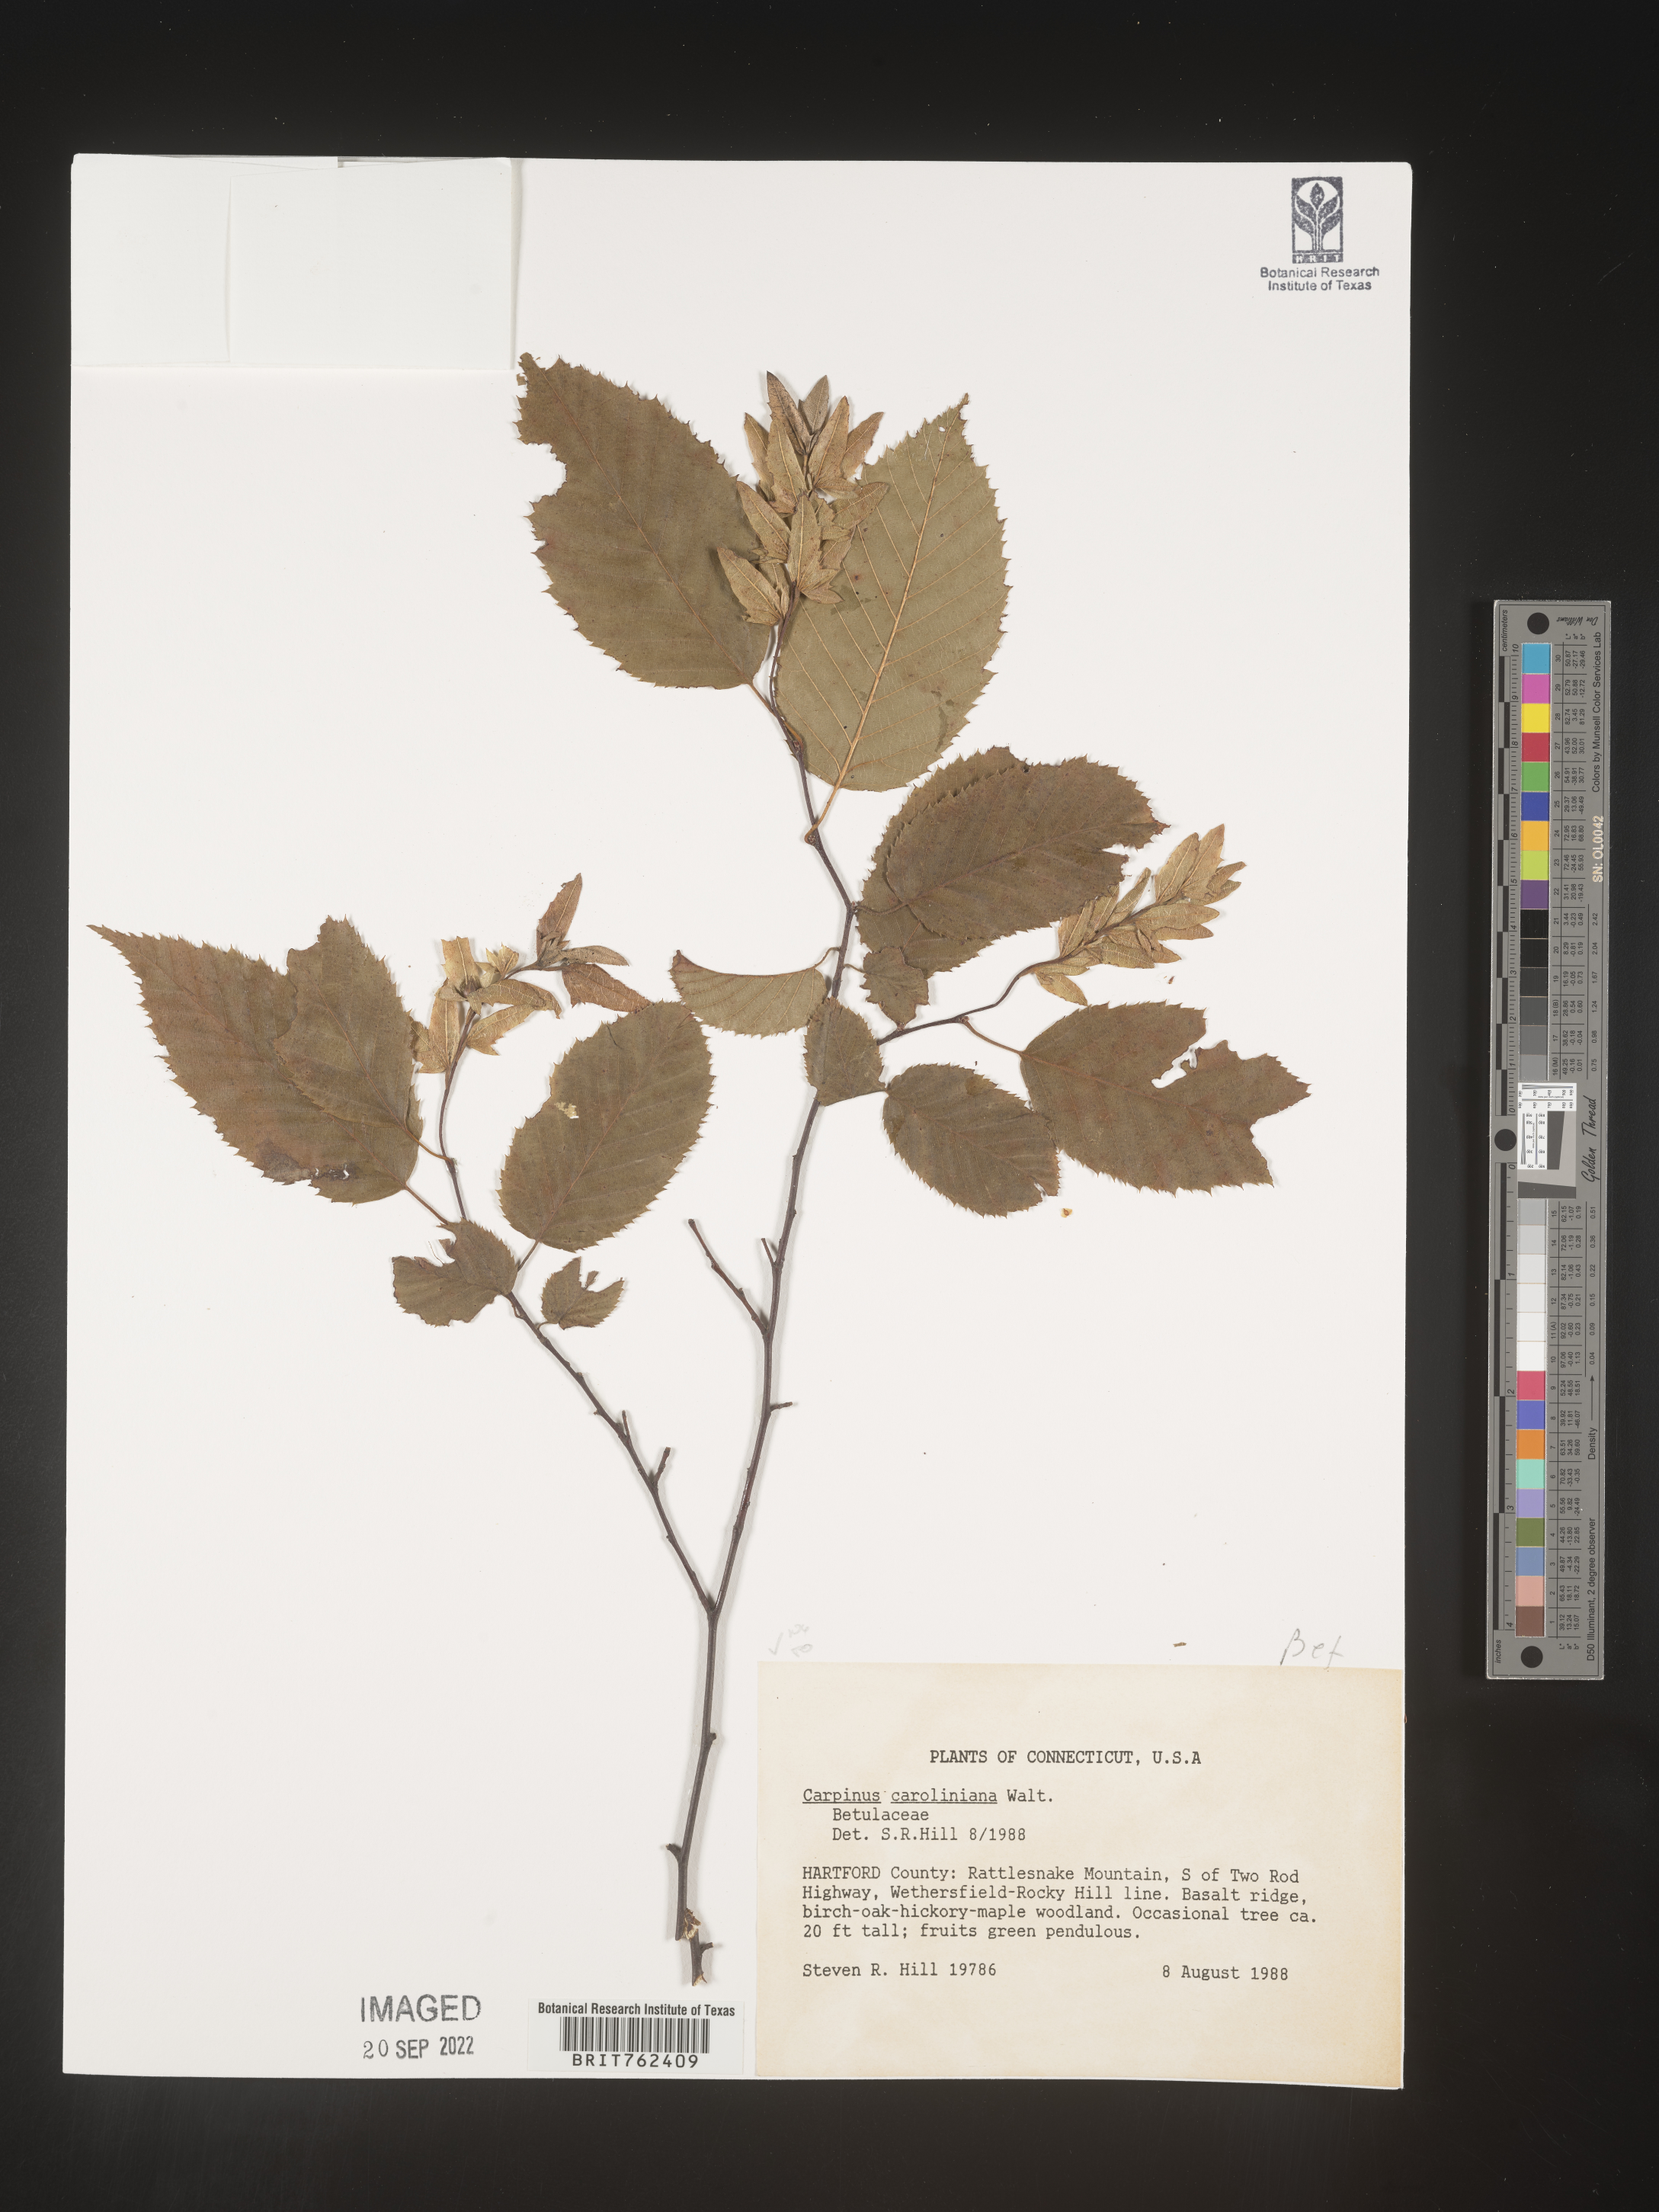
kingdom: Plantae
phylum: Tracheophyta
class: Magnoliopsida
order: Fagales
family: Betulaceae
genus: Carpinus
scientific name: Carpinus caroliniana
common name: American hornbeam
